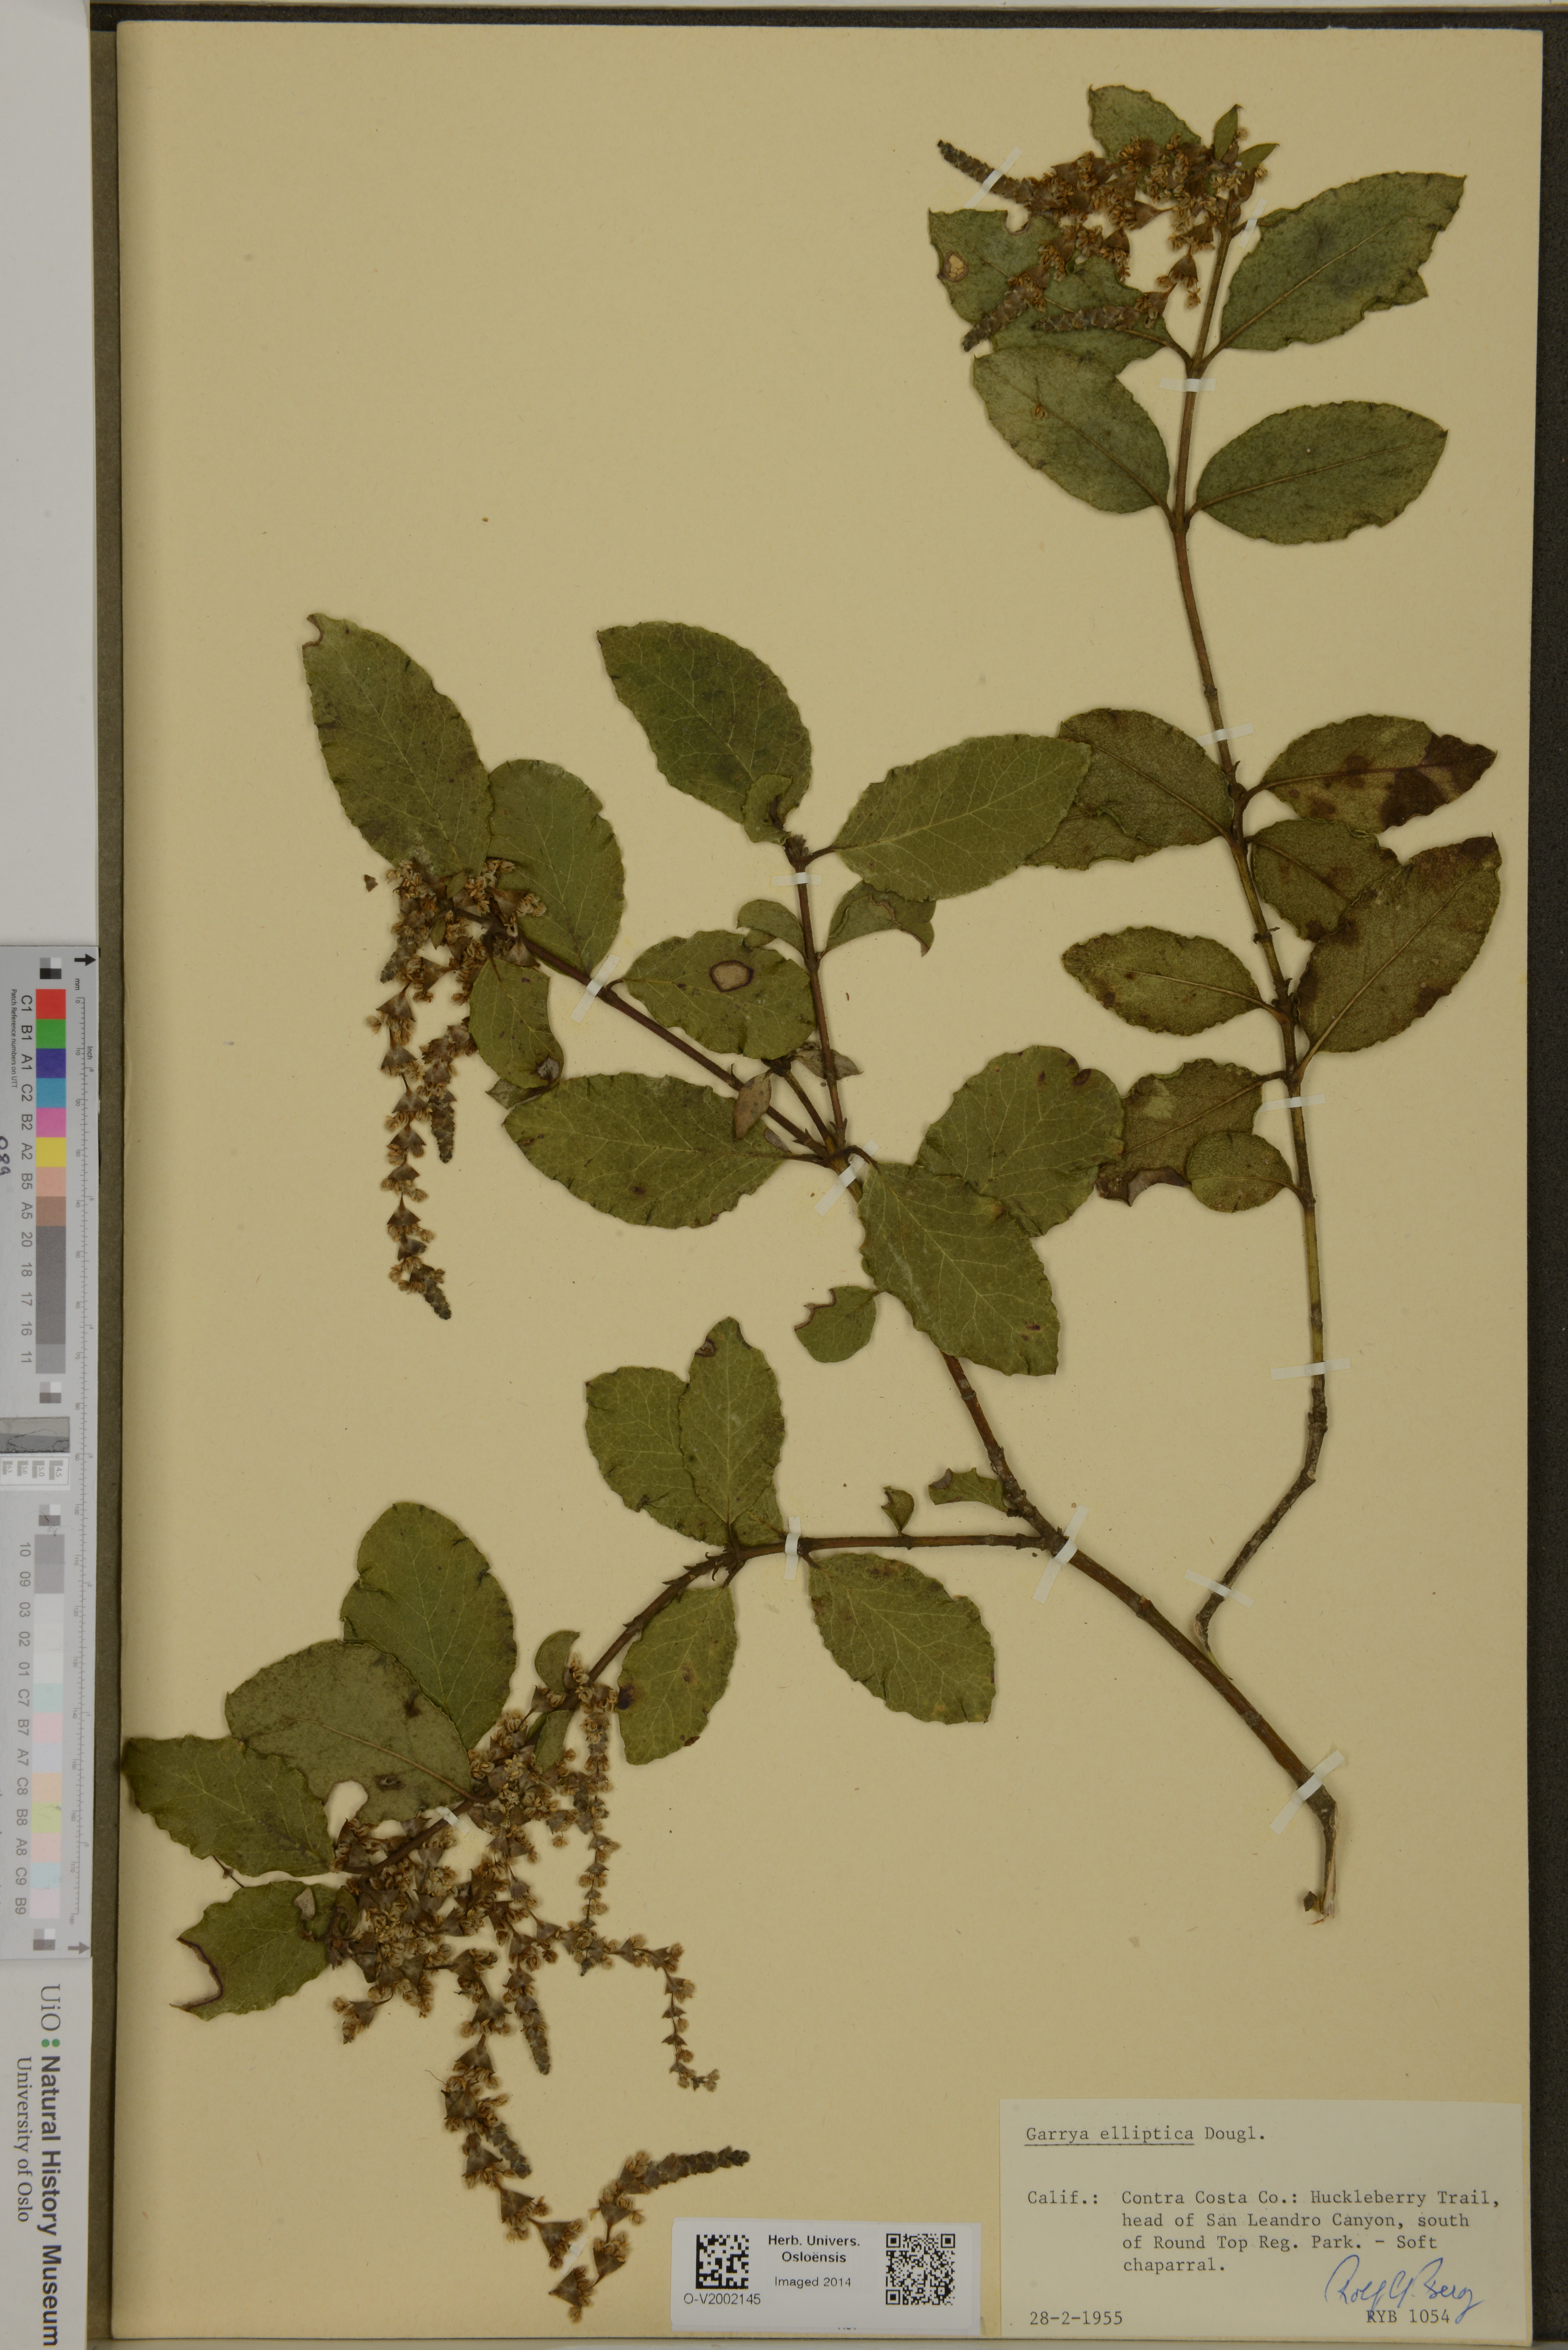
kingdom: Plantae
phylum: Tracheophyta
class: Magnoliopsida
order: Garryales
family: Garryaceae
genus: Garrya
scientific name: Garrya elliptica
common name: Silk-tassel
